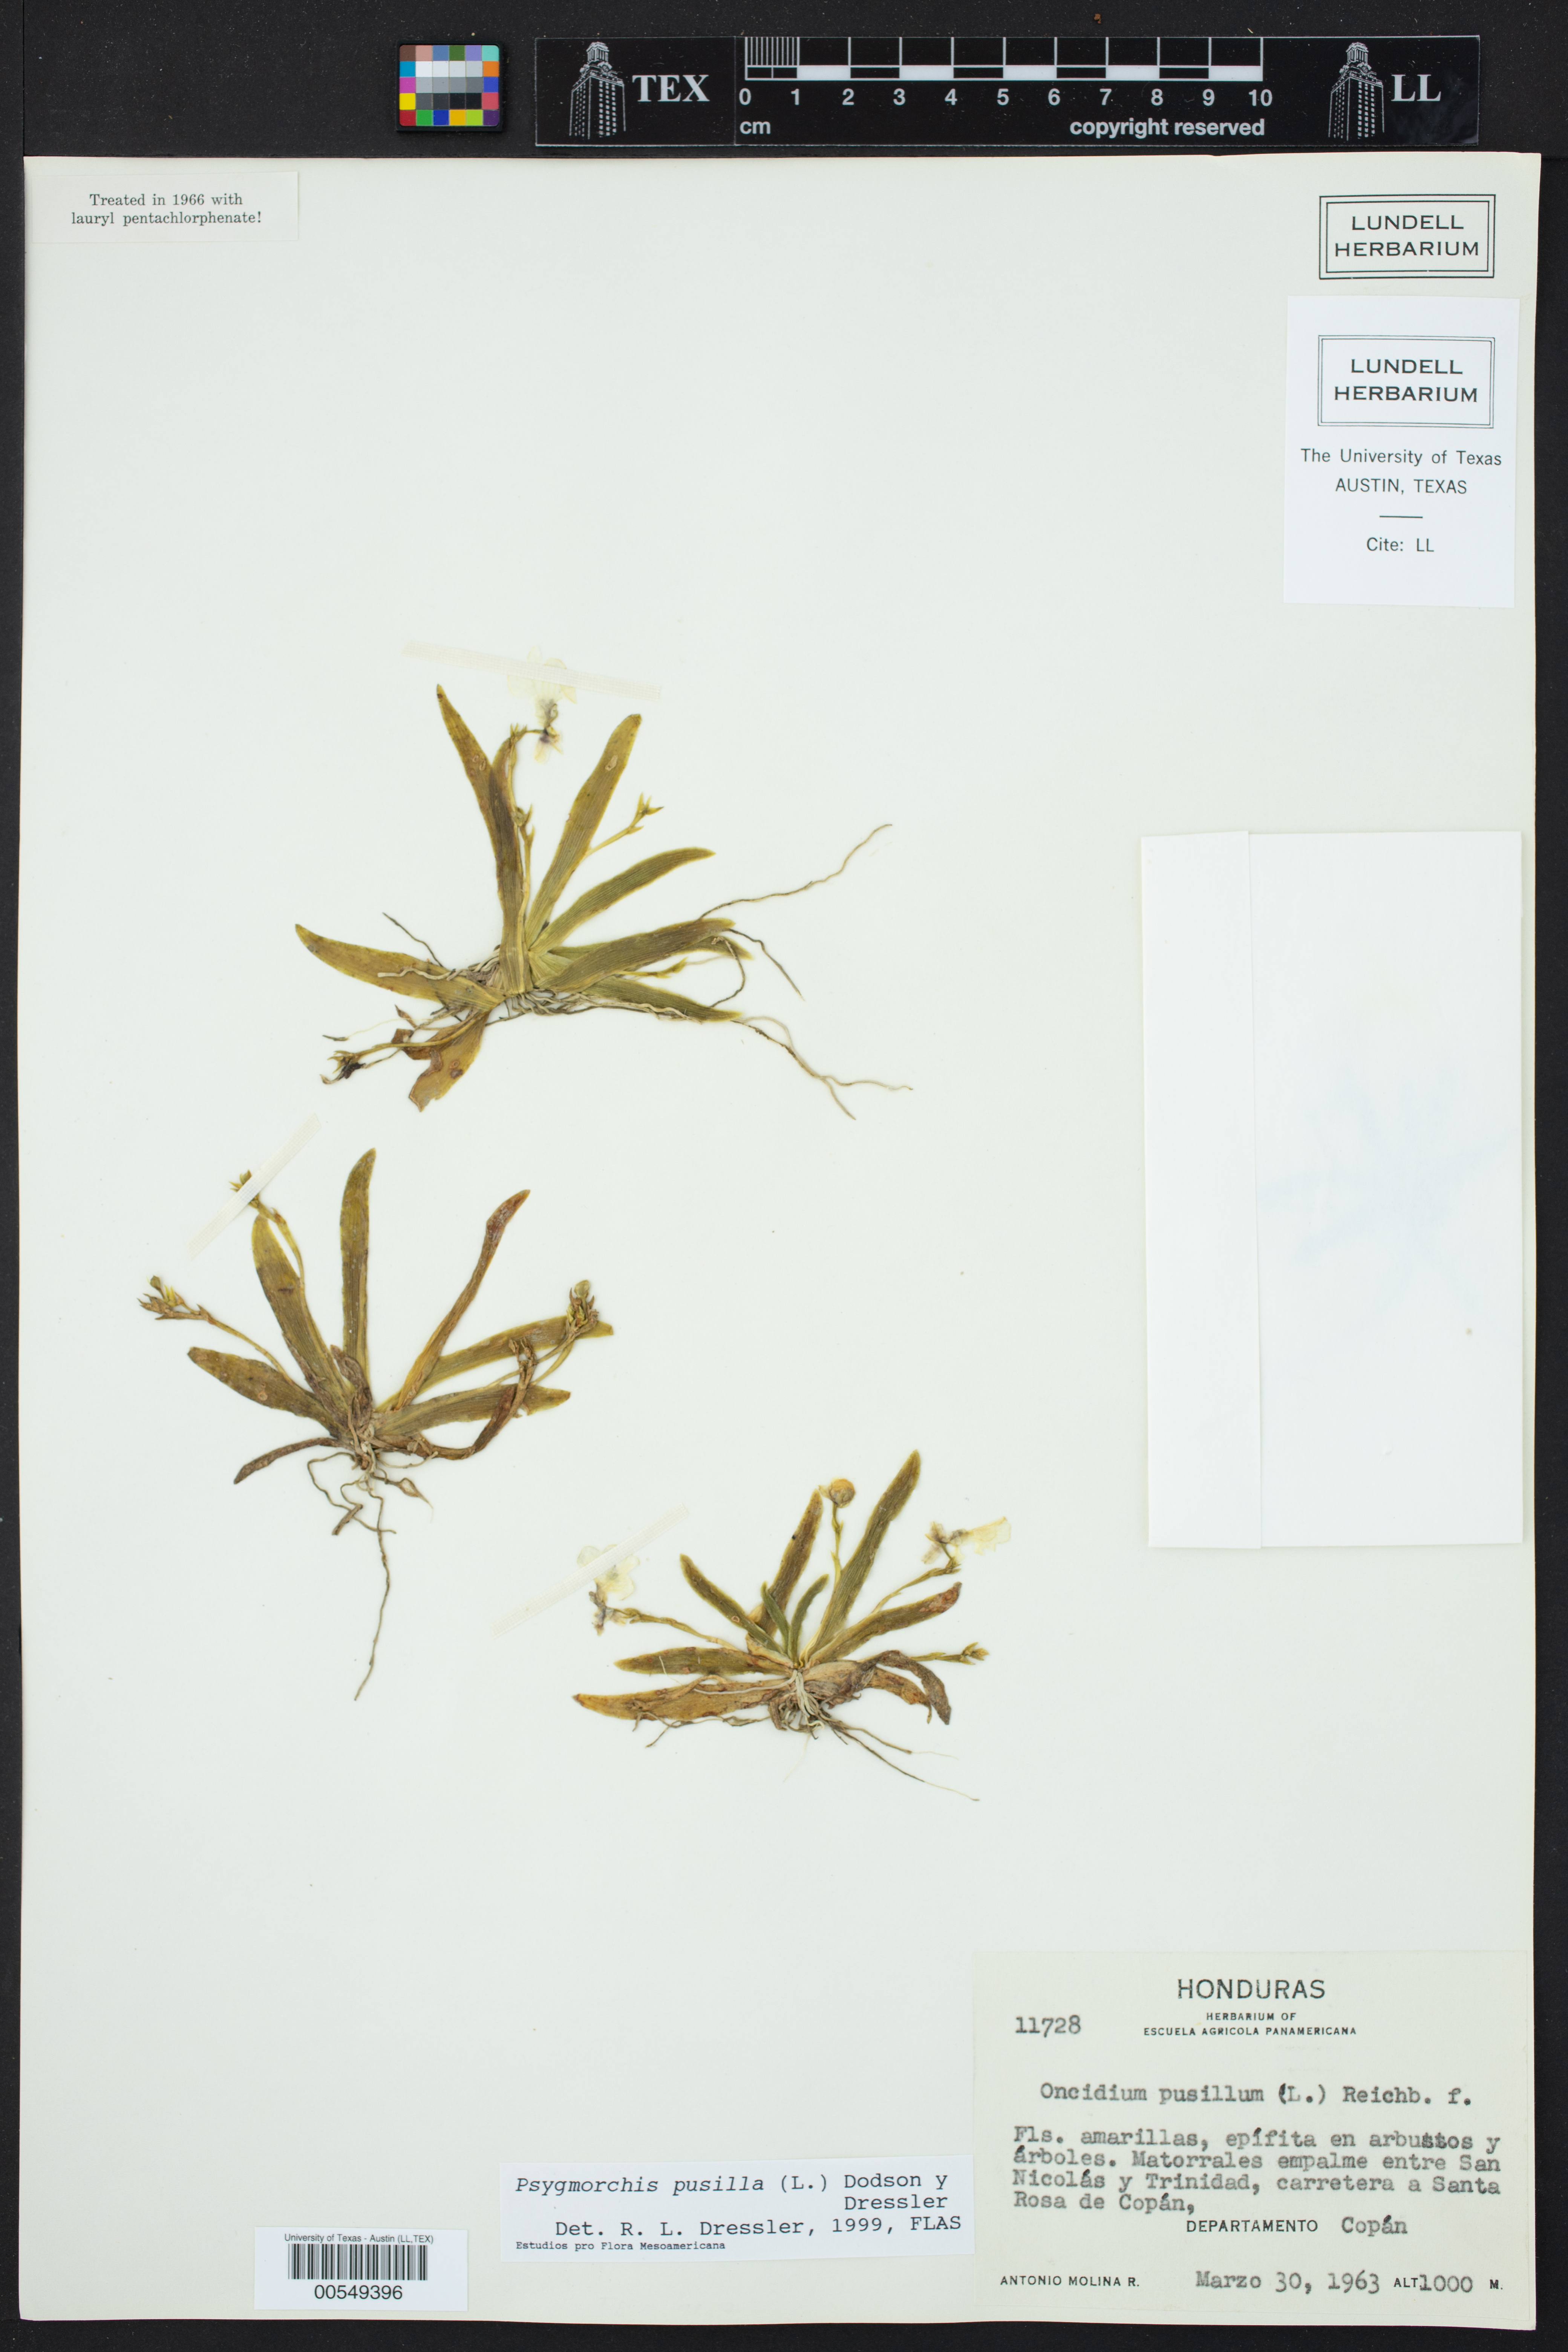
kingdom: Plantae
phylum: Tracheophyta
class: Liliopsida
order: Asparagales
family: Orchidaceae
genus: Erycina
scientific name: Erycina pusilla
